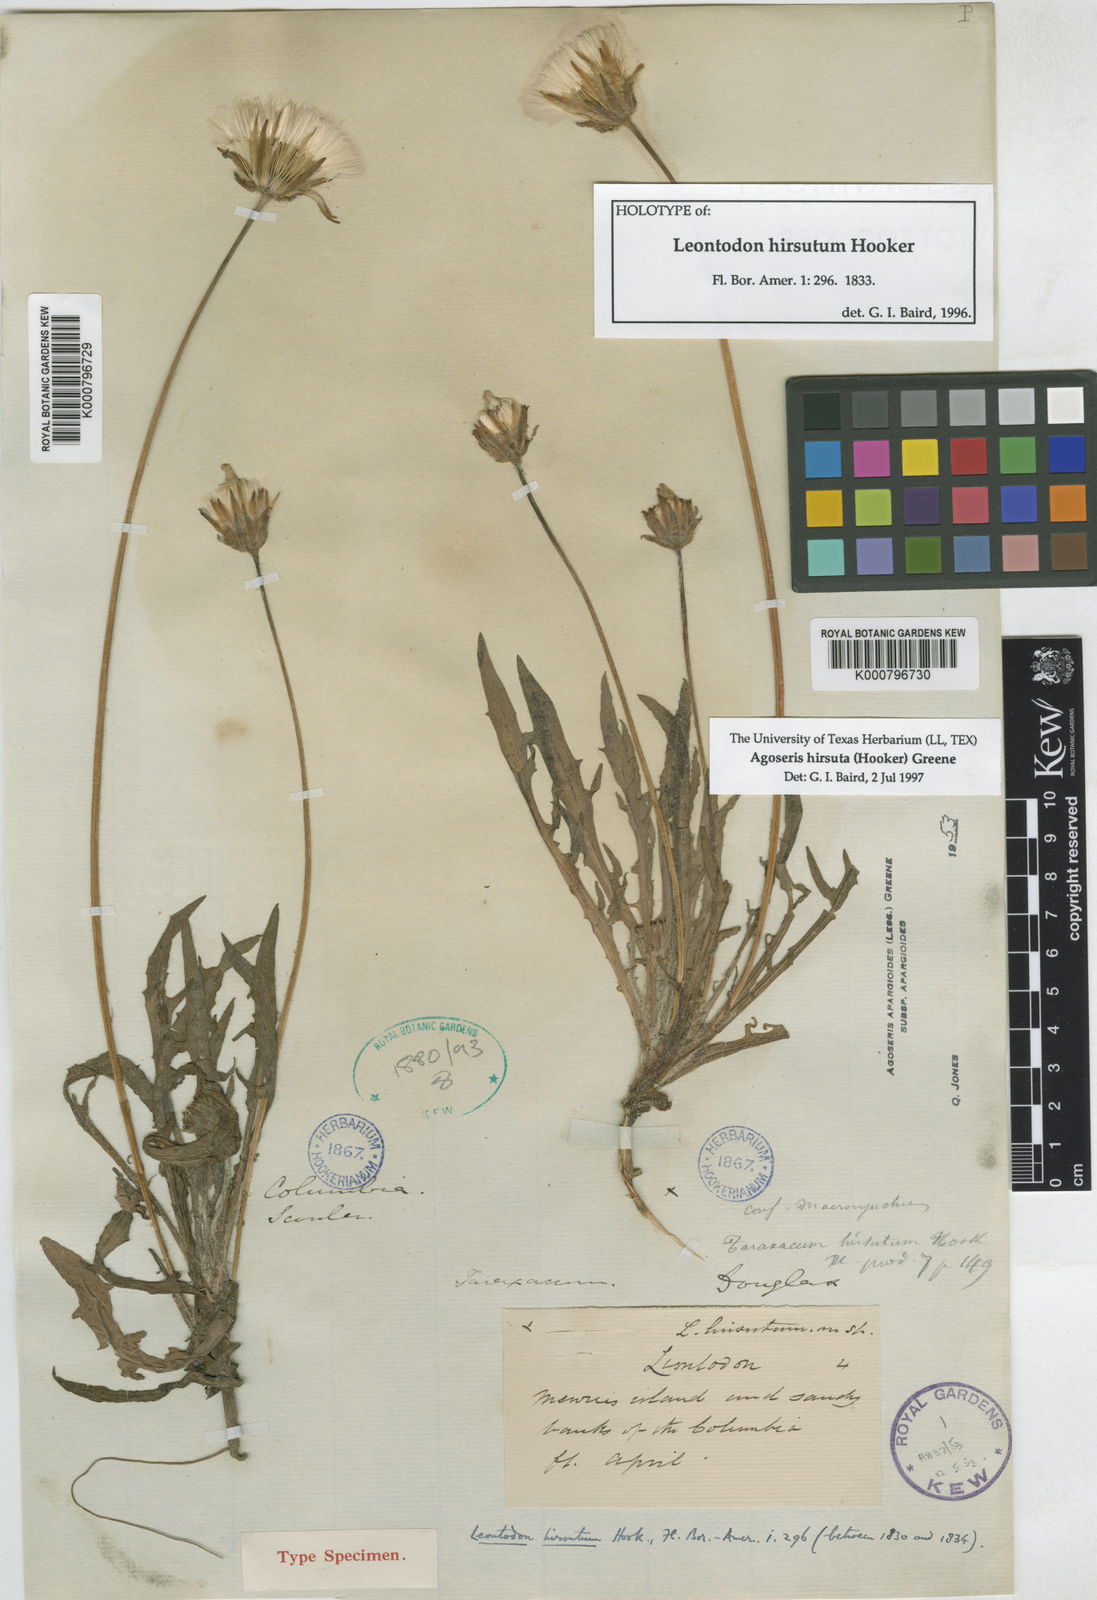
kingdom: Plantae
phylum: Tracheophyta
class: Magnoliopsida
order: Asterales
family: Asteraceae
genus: Agoseris
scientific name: Agoseris hirsuta
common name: Coast range agoseris
